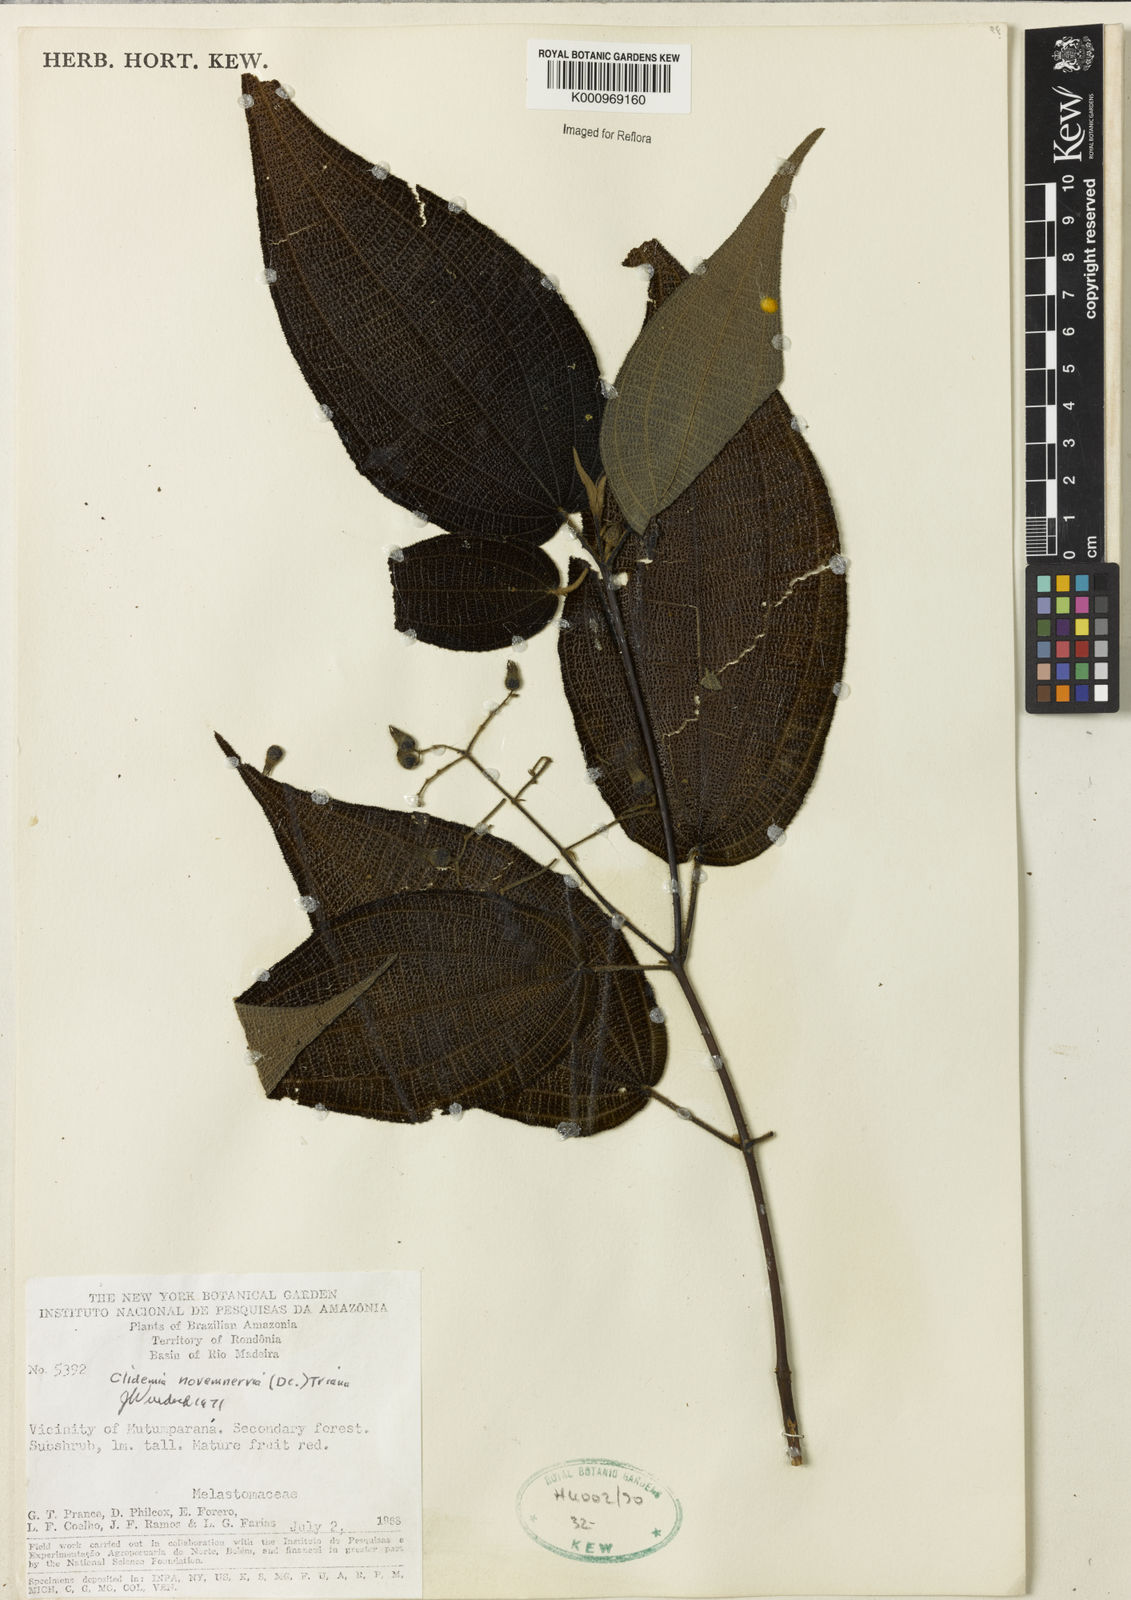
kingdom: Plantae
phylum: Tracheophyta
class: Magnoliopsida
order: Myrtales
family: Melastomataceae
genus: Miconia
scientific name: Miconia bullatifolia
